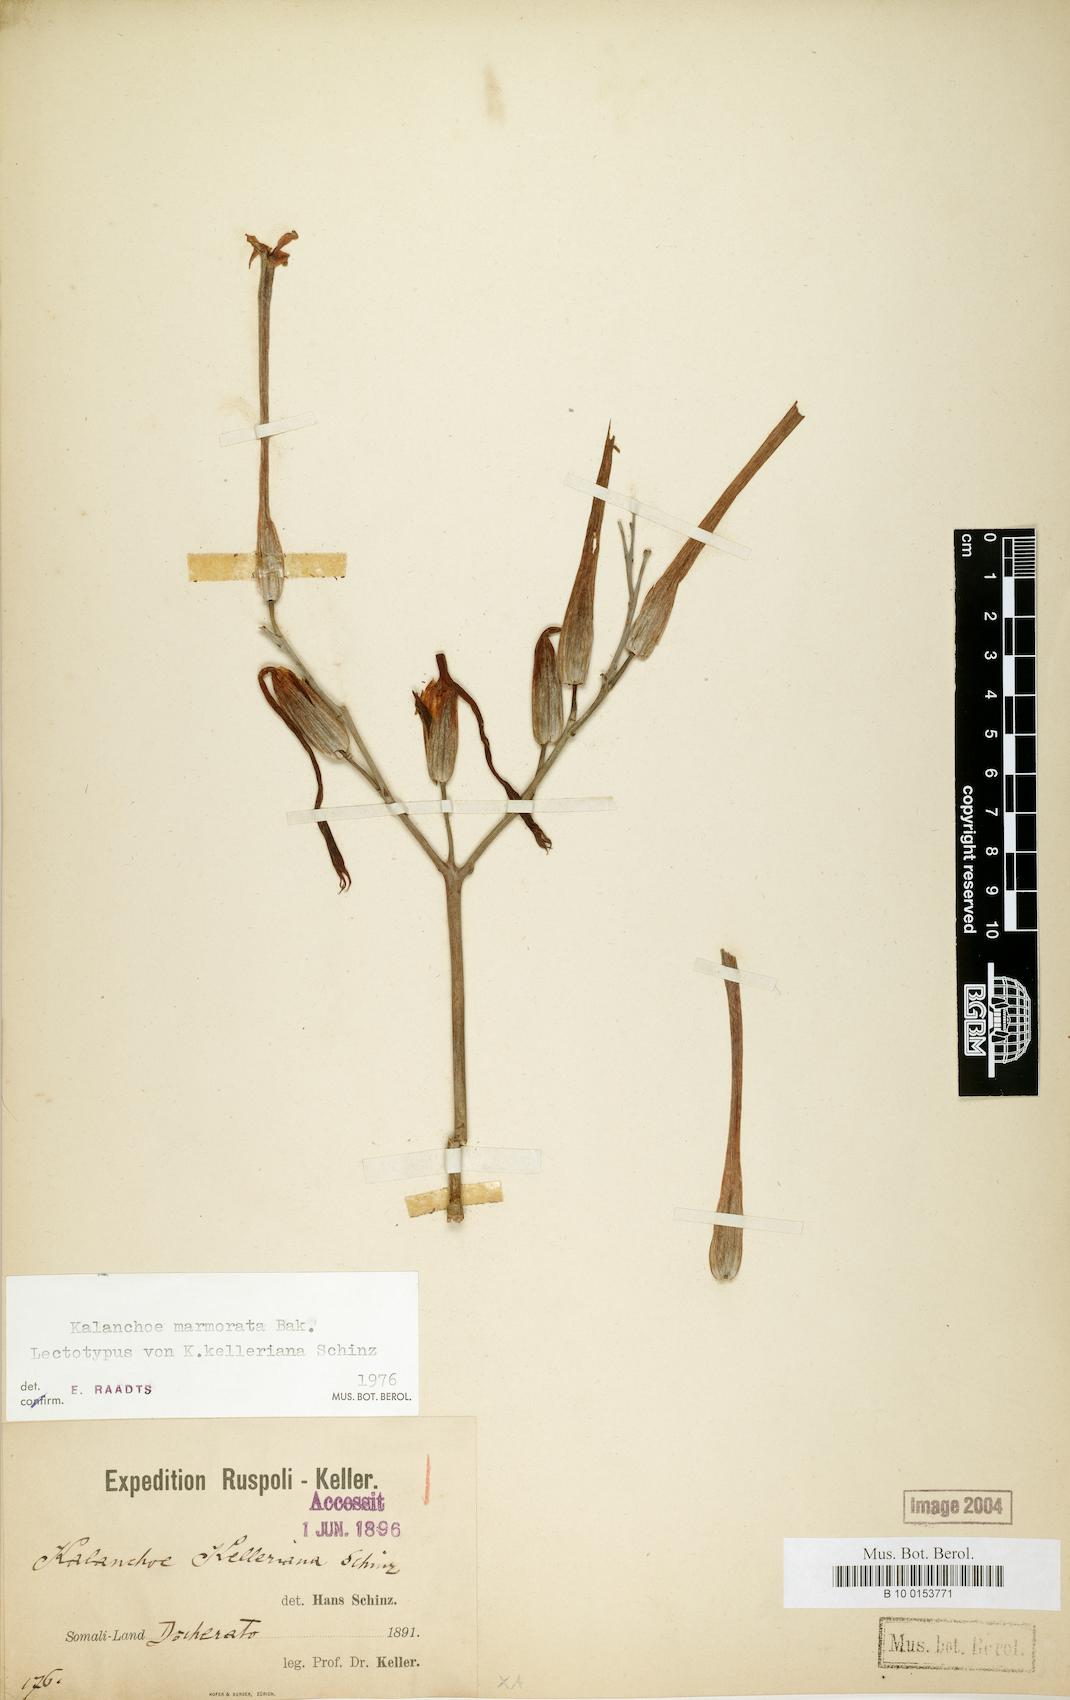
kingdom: Plantae
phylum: Tracheophyta
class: Magnoliopsida
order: Saxifragales
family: Crassulaceae
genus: Kalanchoe
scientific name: Kalanchoe marmorata
